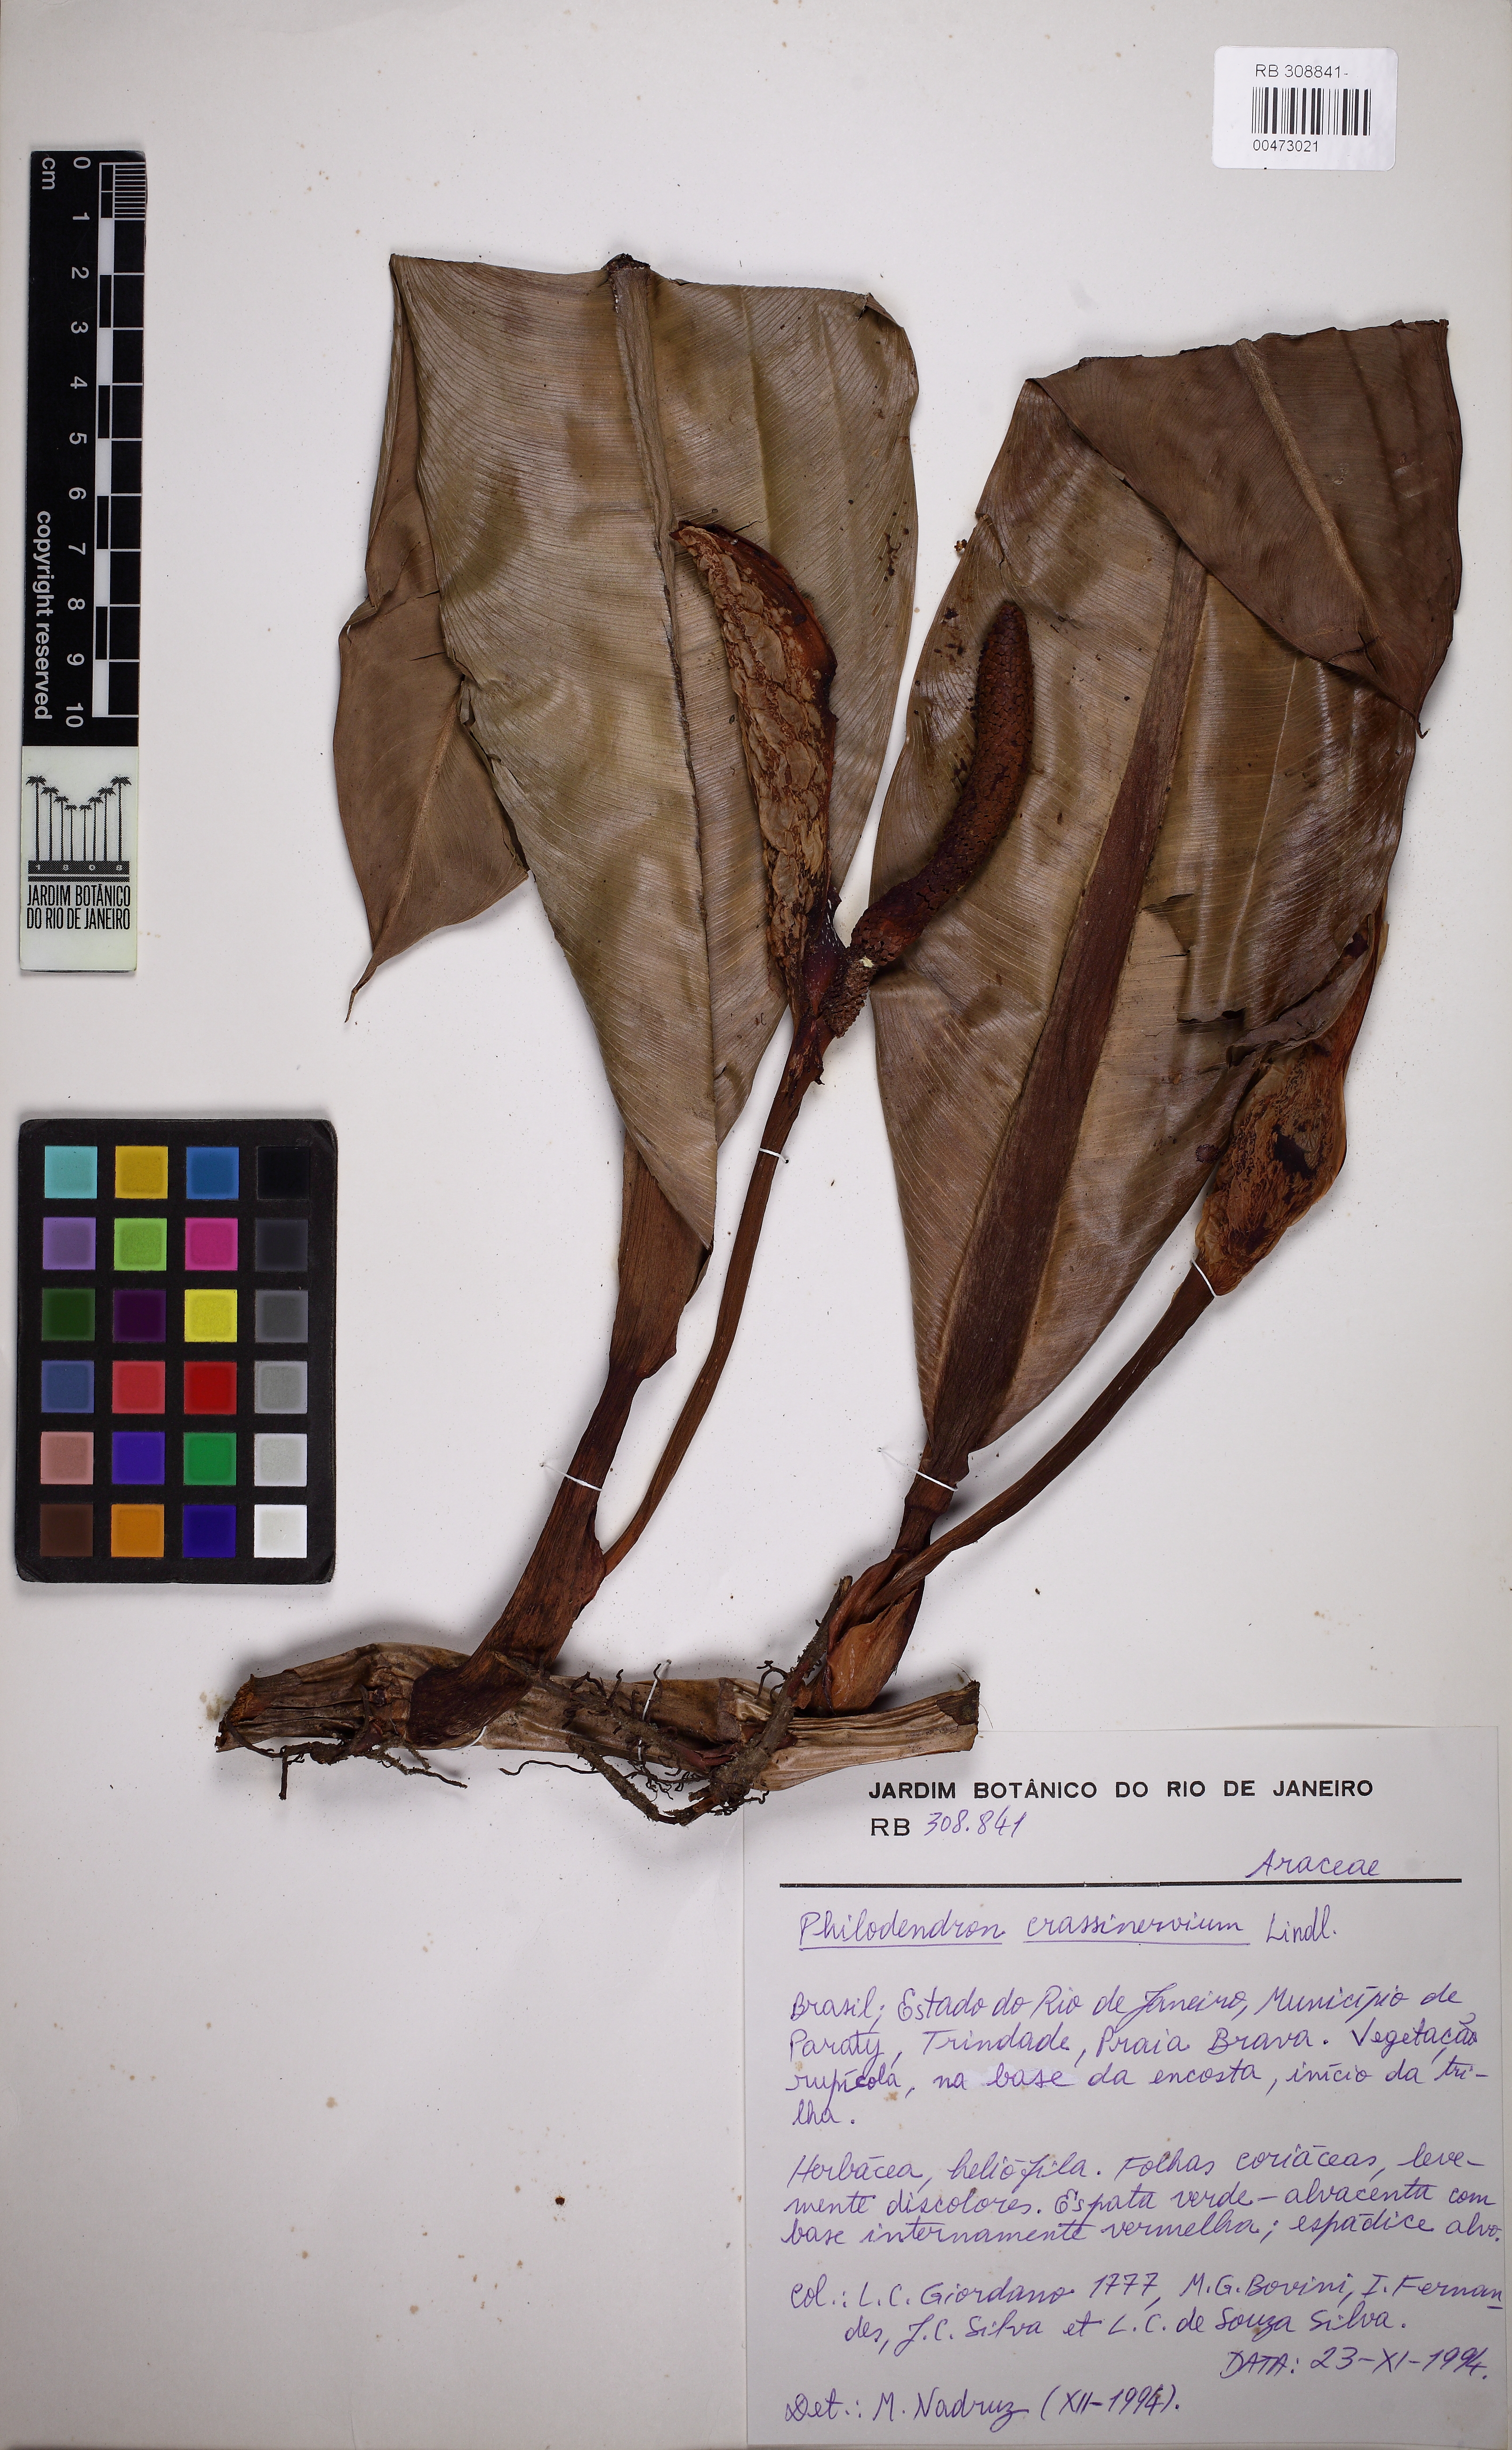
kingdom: Plantae
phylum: Tracheophyta
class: Liliopsida
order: Alismatales
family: Araceae
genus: Philodendron
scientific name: Philodendron crassinervium
